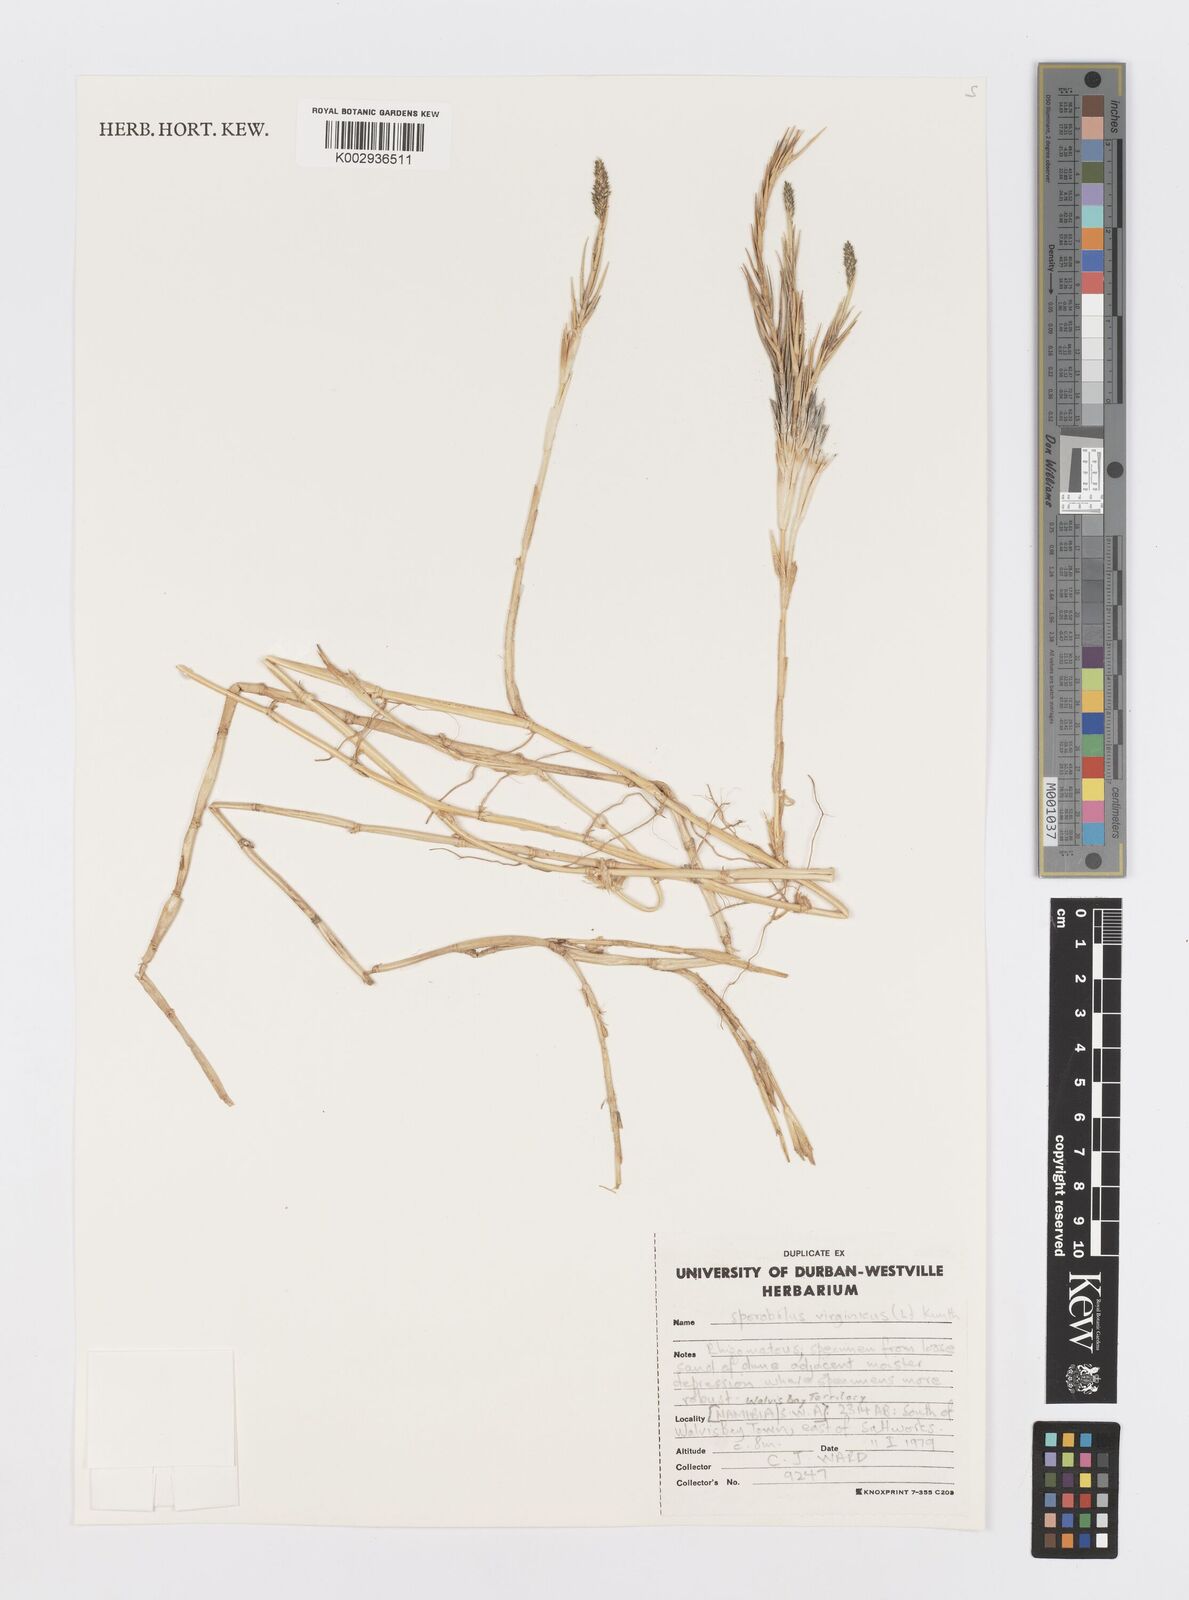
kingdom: Plantae
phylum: Tracheophyta
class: Liliopsida
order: Poales
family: Poaceae
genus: Sporobolus
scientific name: Sporobolus virginicus
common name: Beach dropseed
